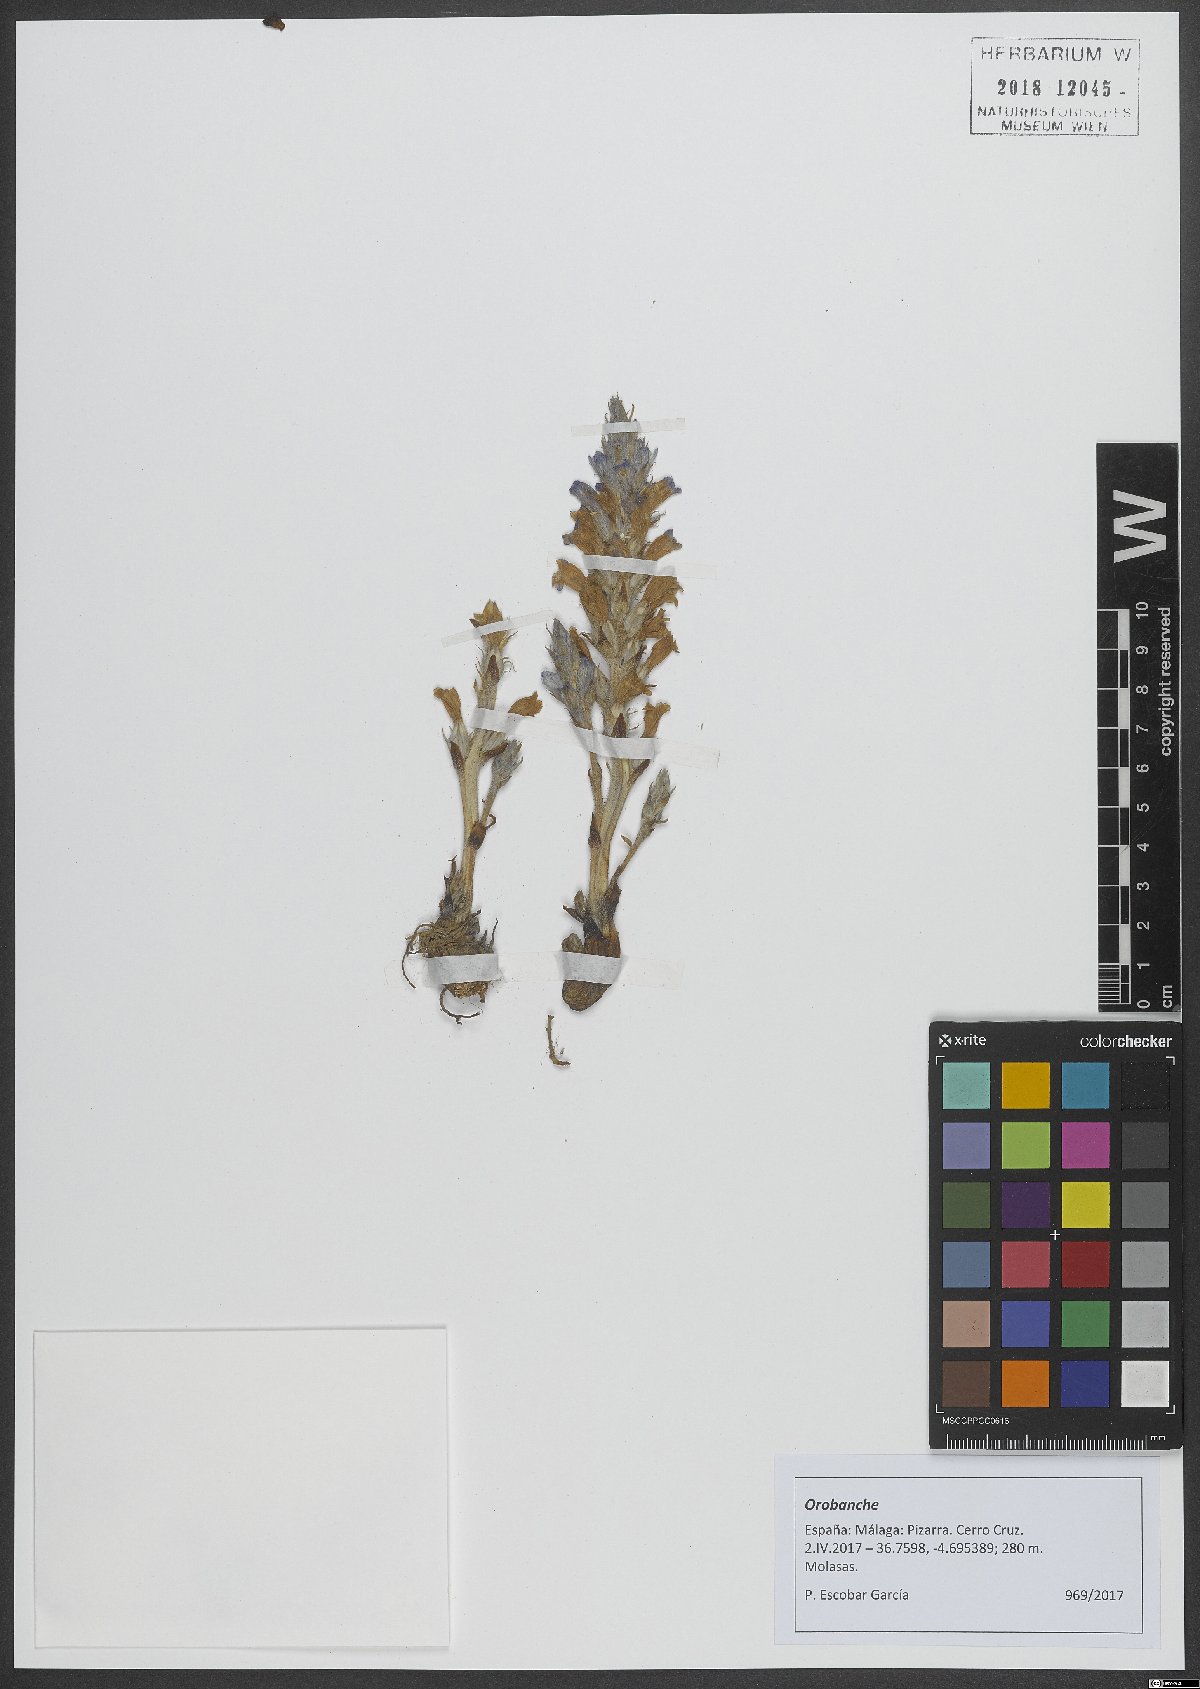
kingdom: Plantae
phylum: Tracheophyta
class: Magnoliopsida
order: Lamiales
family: Orobanchaceae
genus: Orobanche
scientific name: Orobanche
